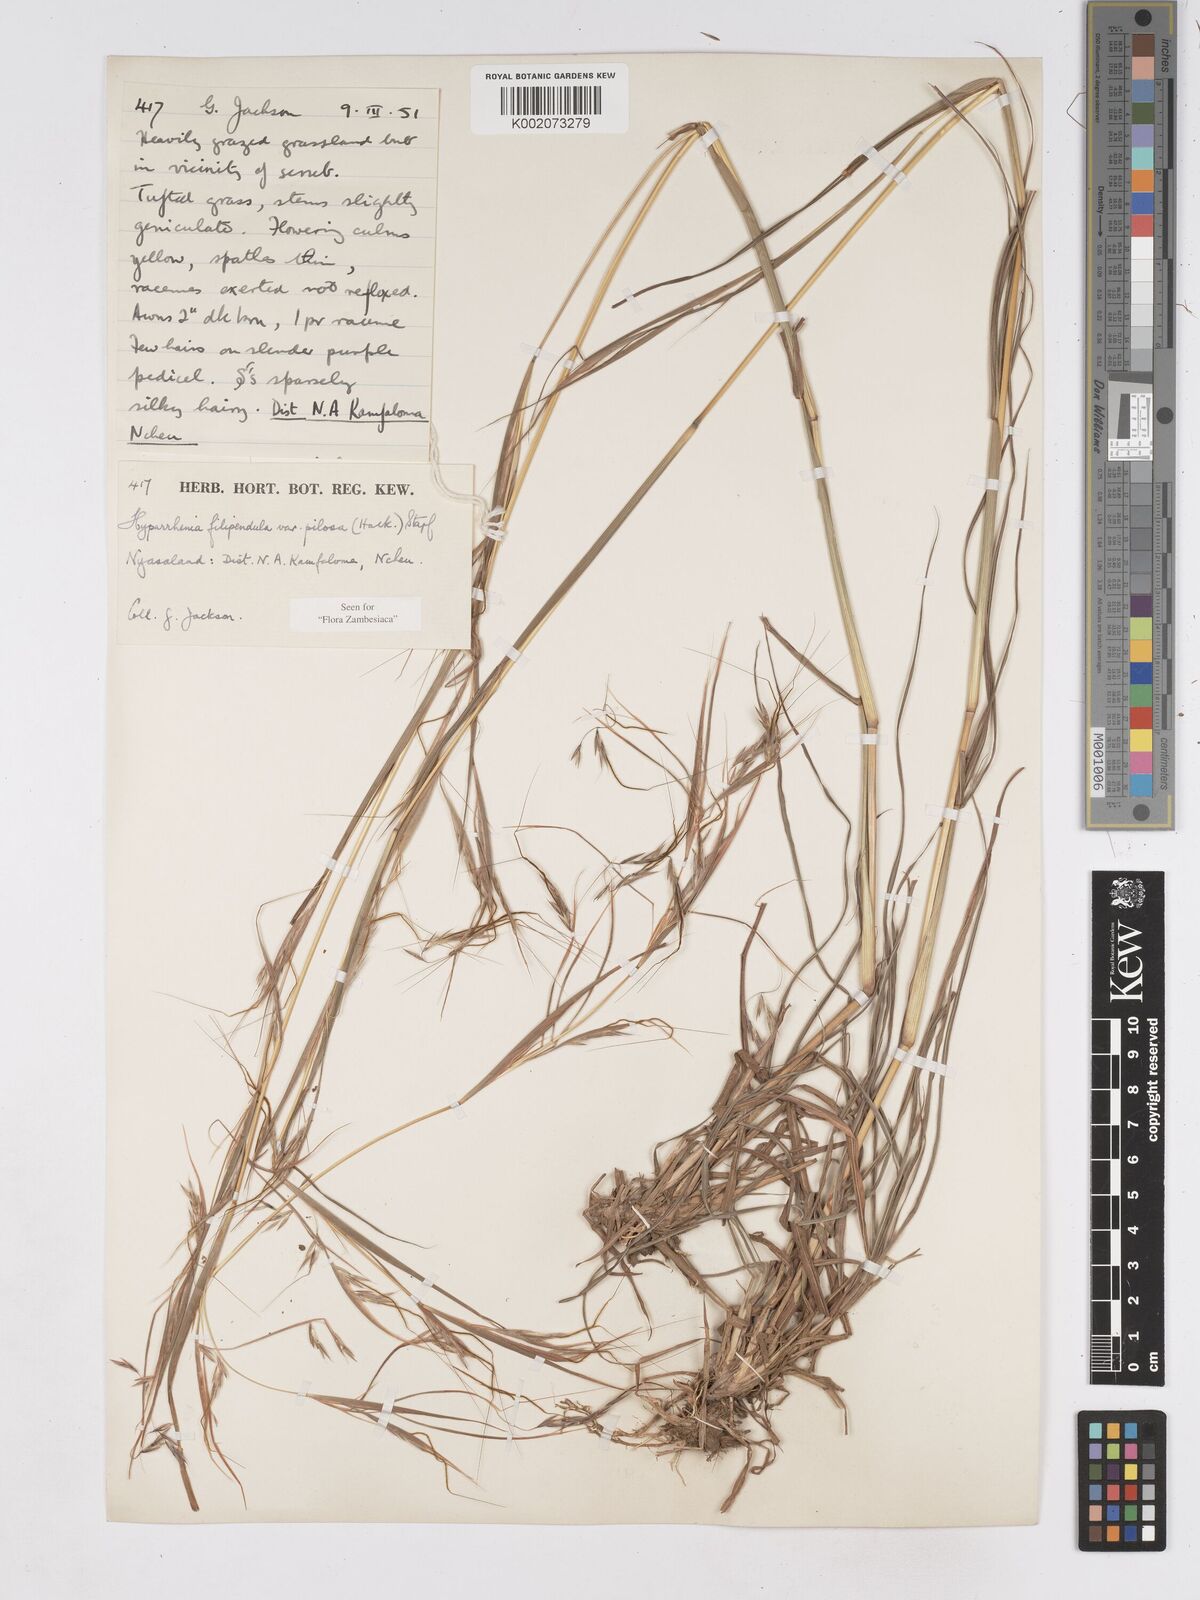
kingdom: Plantae
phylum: Tracheophyta
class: Liliopsida
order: Poales
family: Poaceae
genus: Hyparrhenia
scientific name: Hyparrhenia filipendula
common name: Tambookie grass
